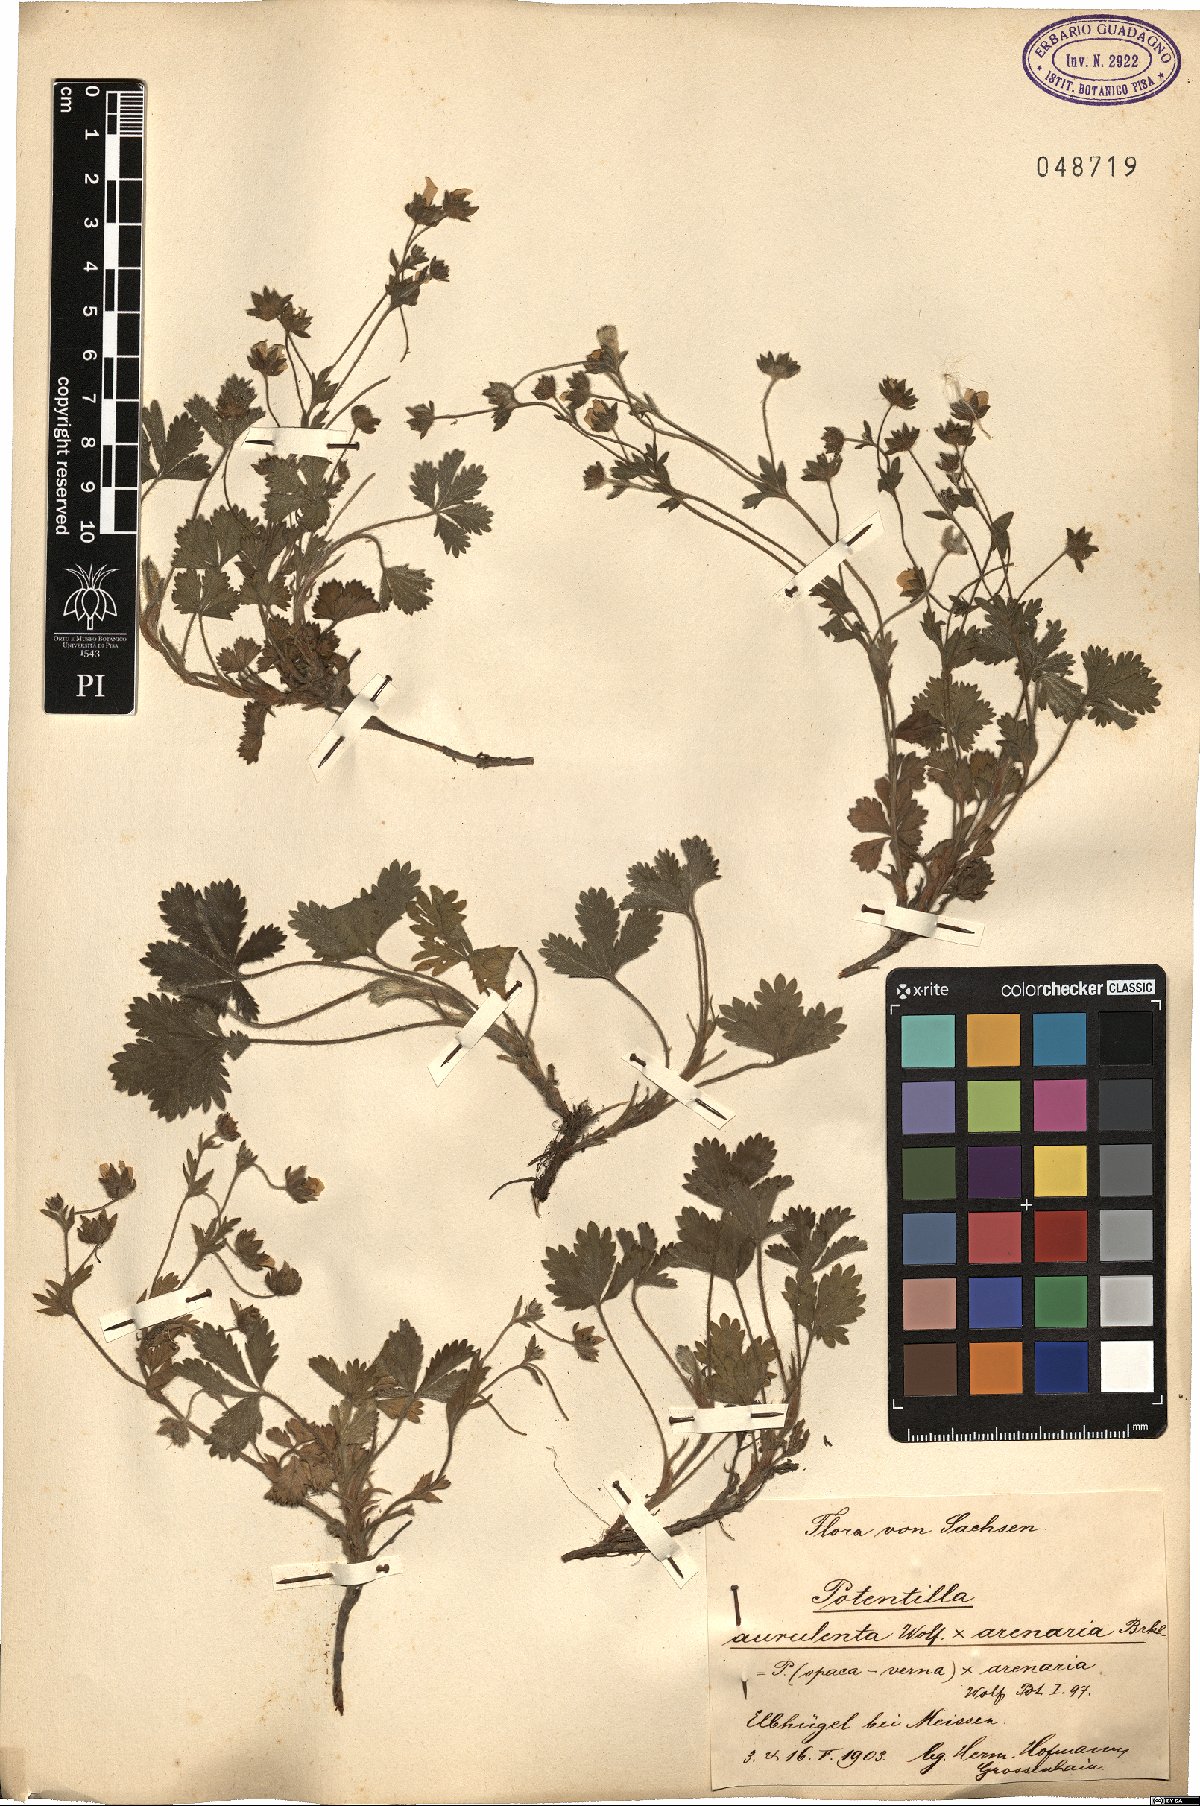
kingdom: Plantae
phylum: Tracheophyta
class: Magnoliopsida
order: Rosales
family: Rosaceae
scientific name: Rosaceae
